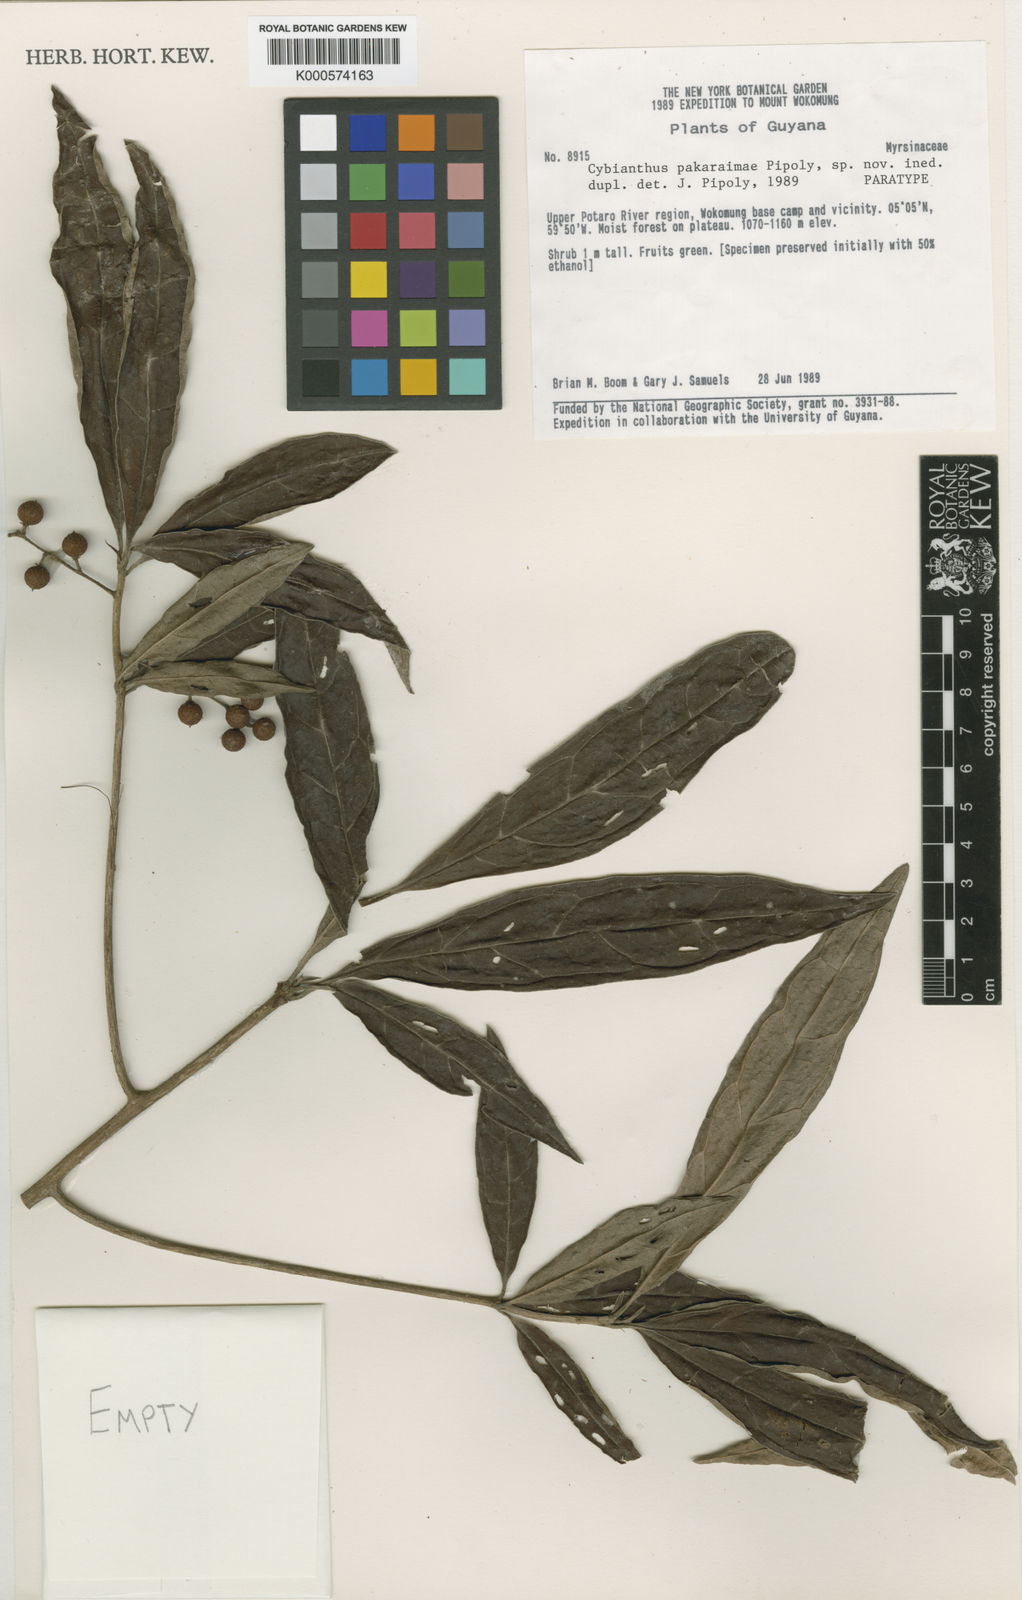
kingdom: Plantae
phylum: Tracheophyta
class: Magnoliopsida
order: Ericales
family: Primulaceae
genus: Cybianthus
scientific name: Cybianthus
